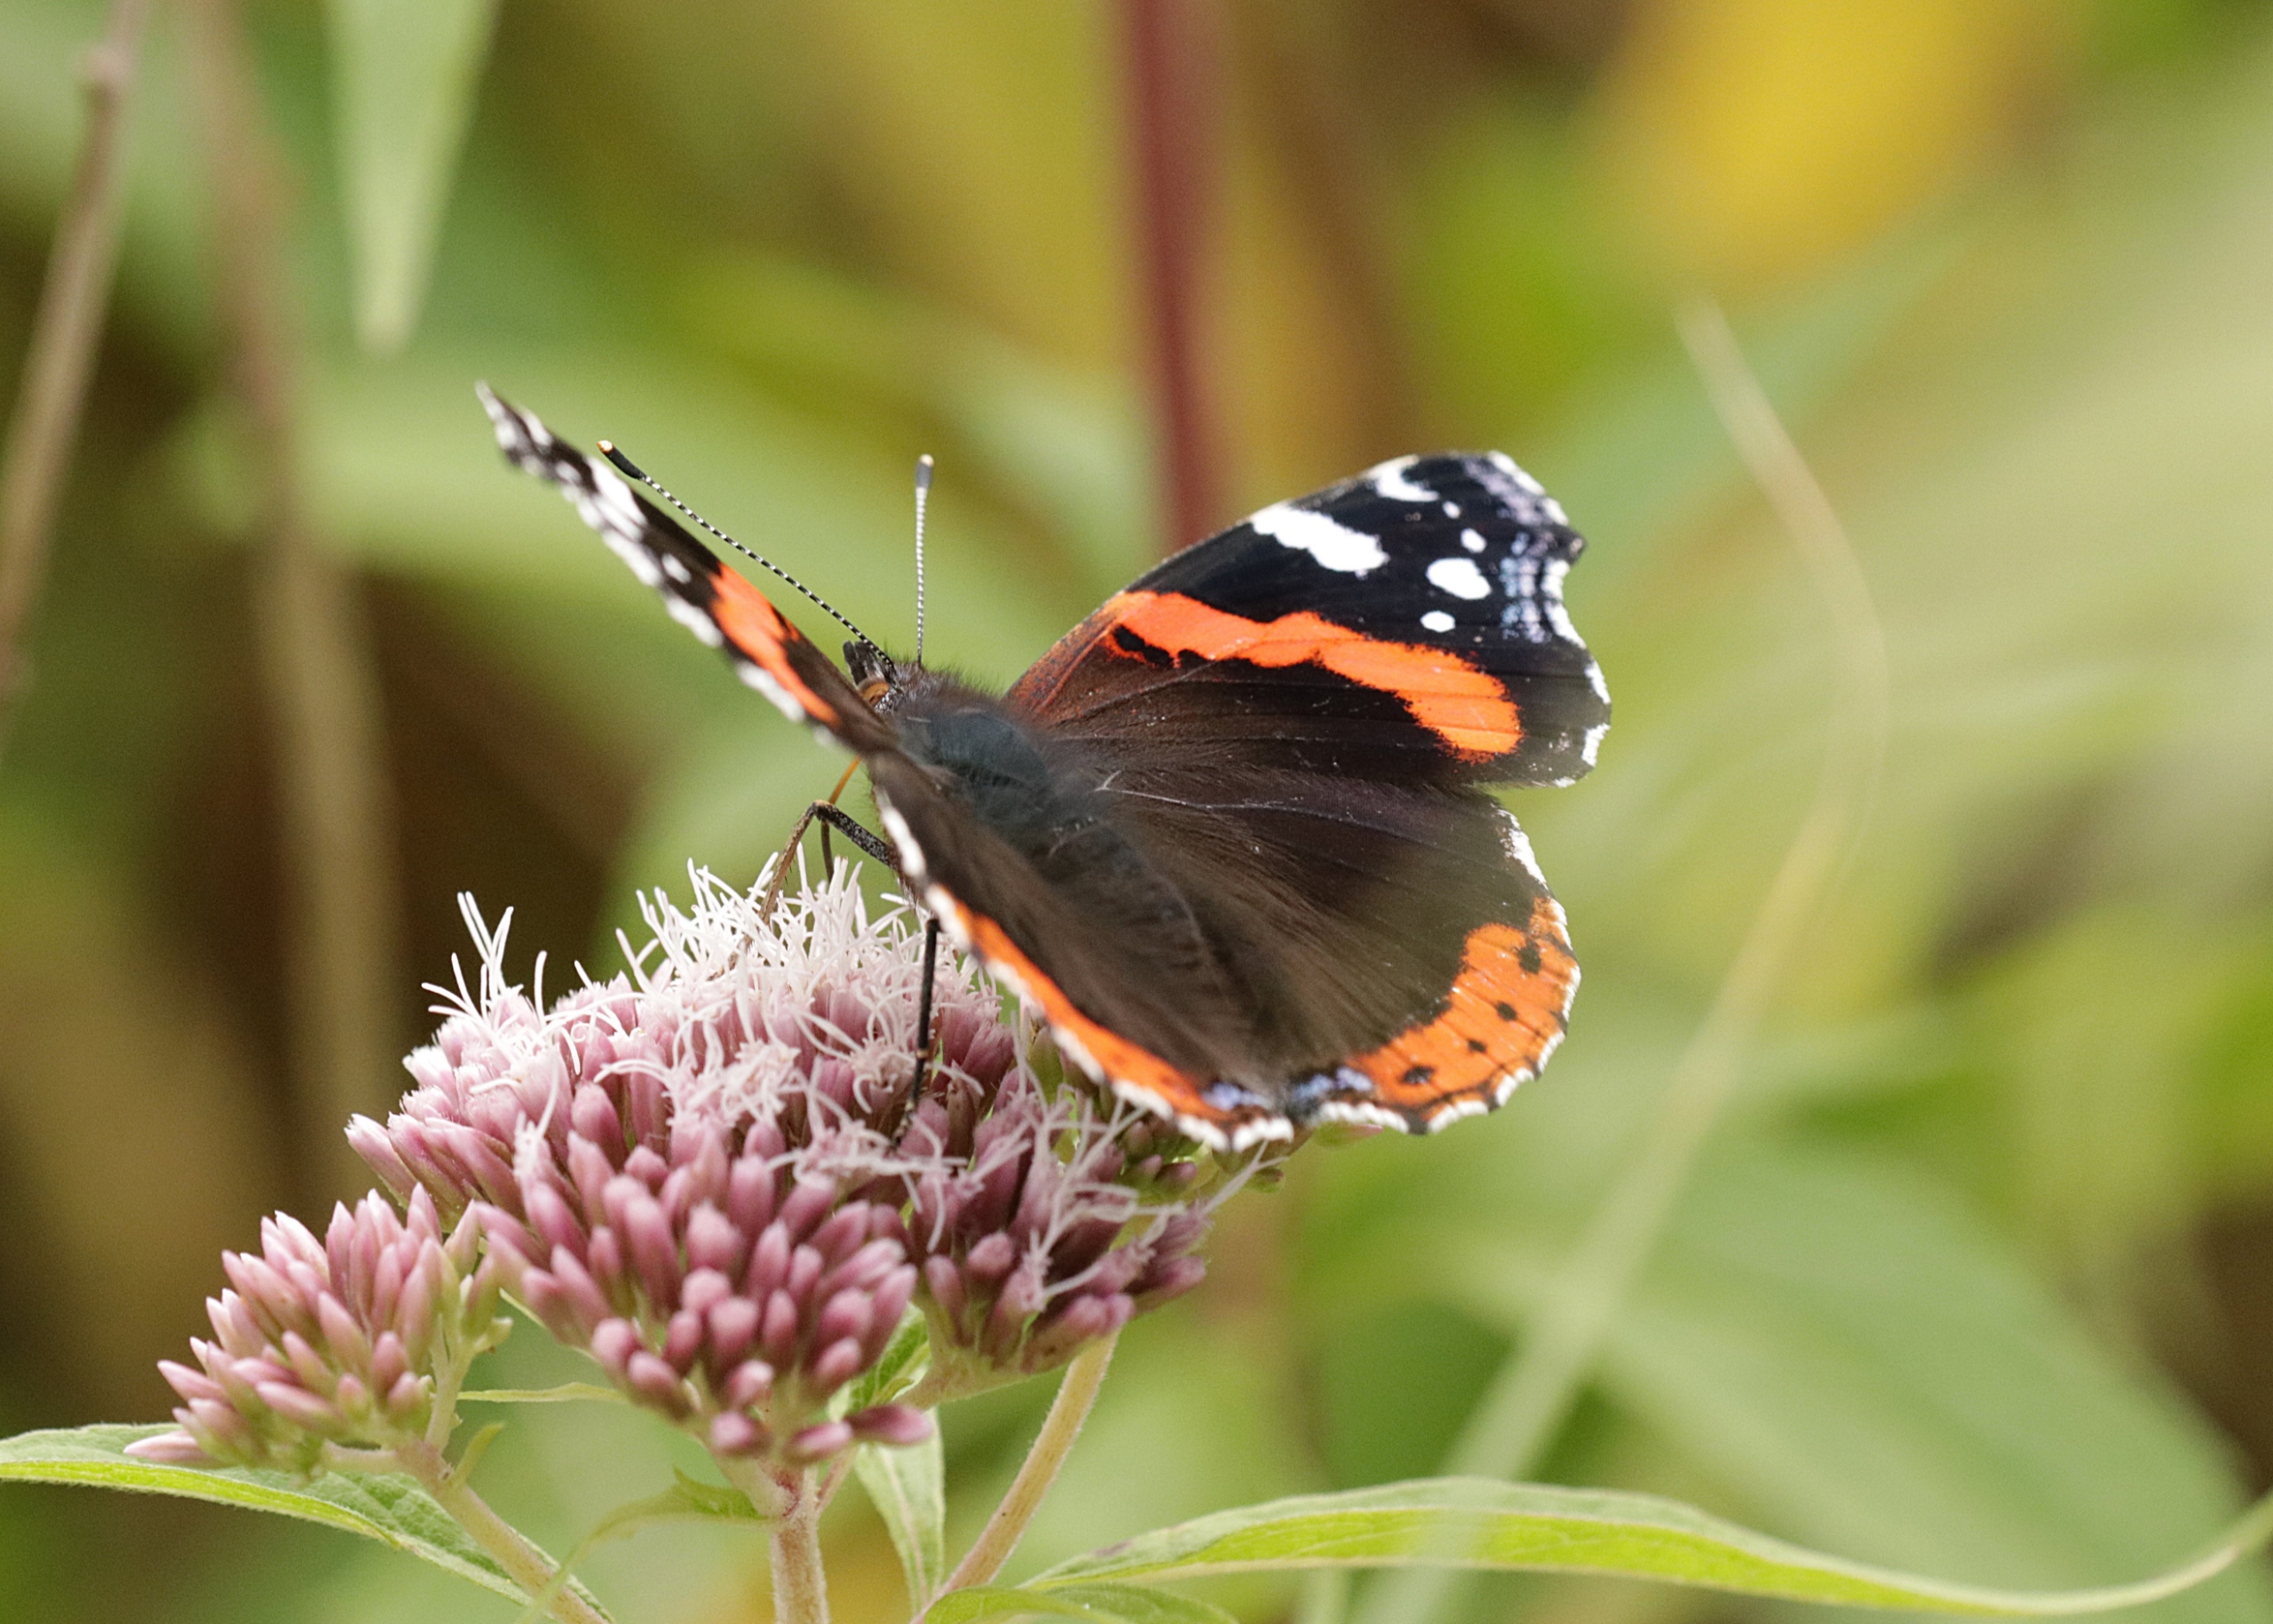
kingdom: Animalia
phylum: Arthropoda
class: Insecta
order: Lepidoptera
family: Nymphalidae
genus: Vanessa
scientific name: Vanessa atalanta
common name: Admiral
